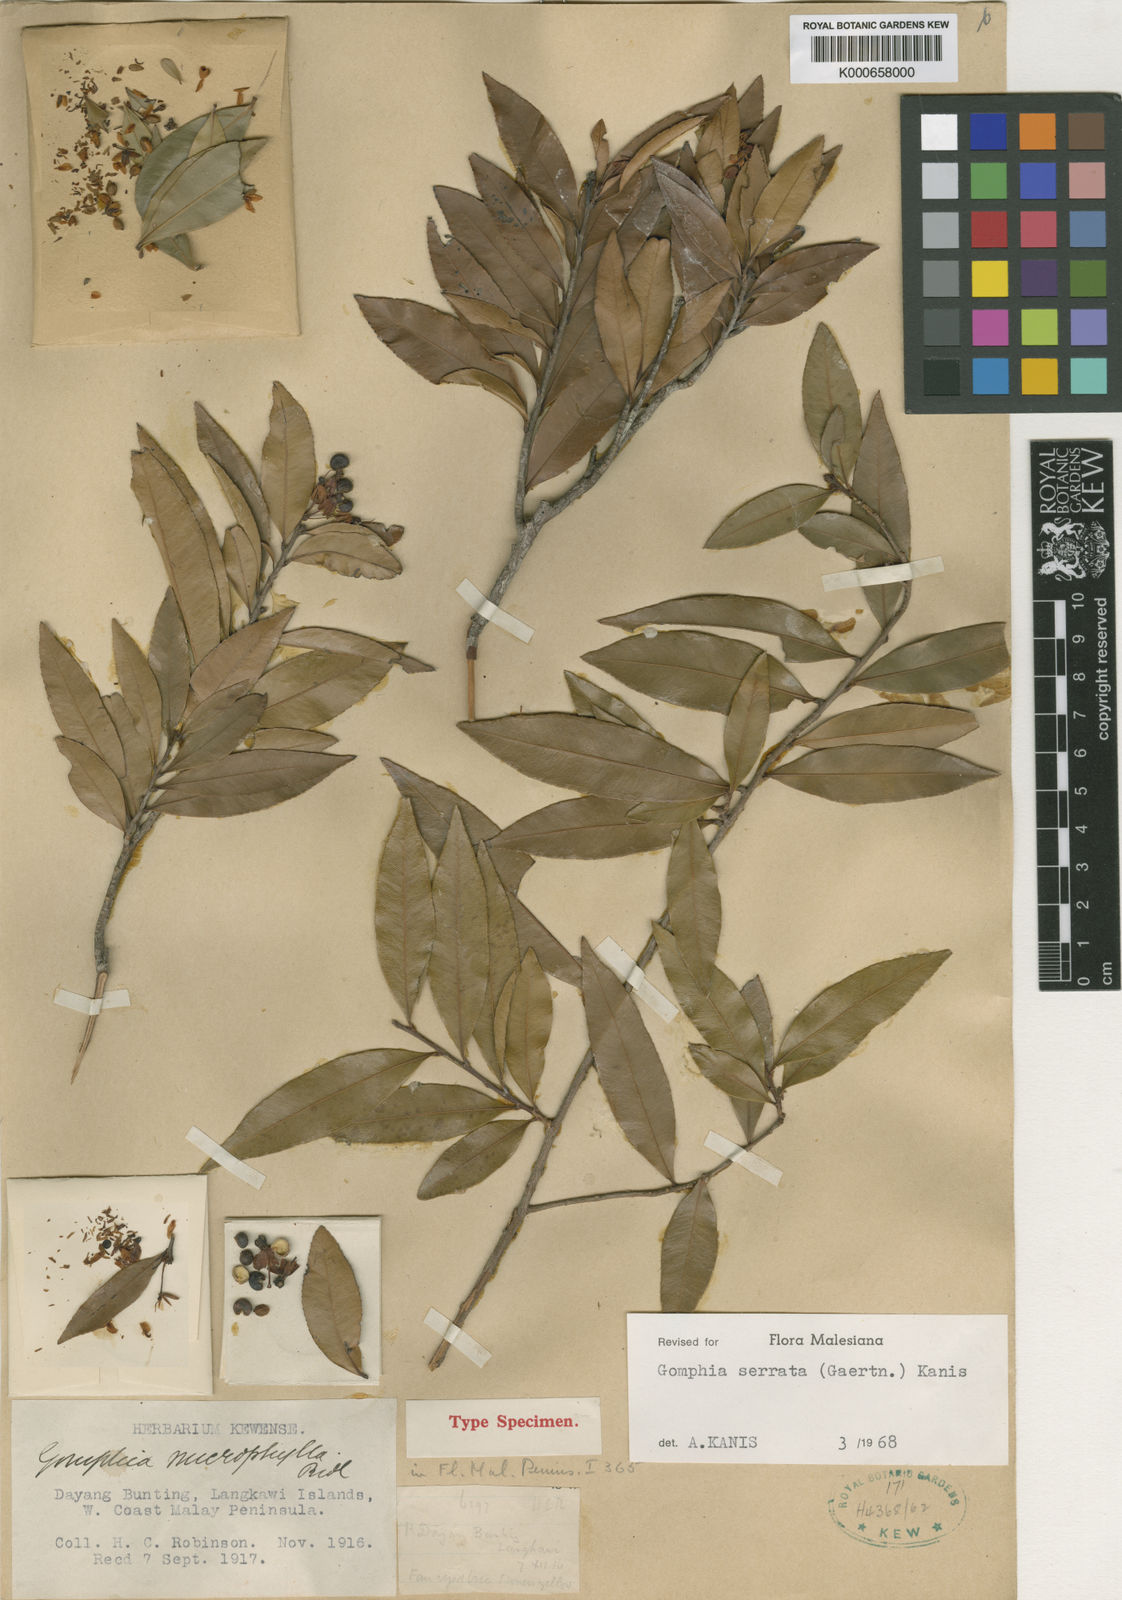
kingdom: Plantae
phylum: Tracheophyta
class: Magnoliopsida
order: Malpighiales
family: Ochnaceae
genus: Gomphia
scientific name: Gomphia serrata
